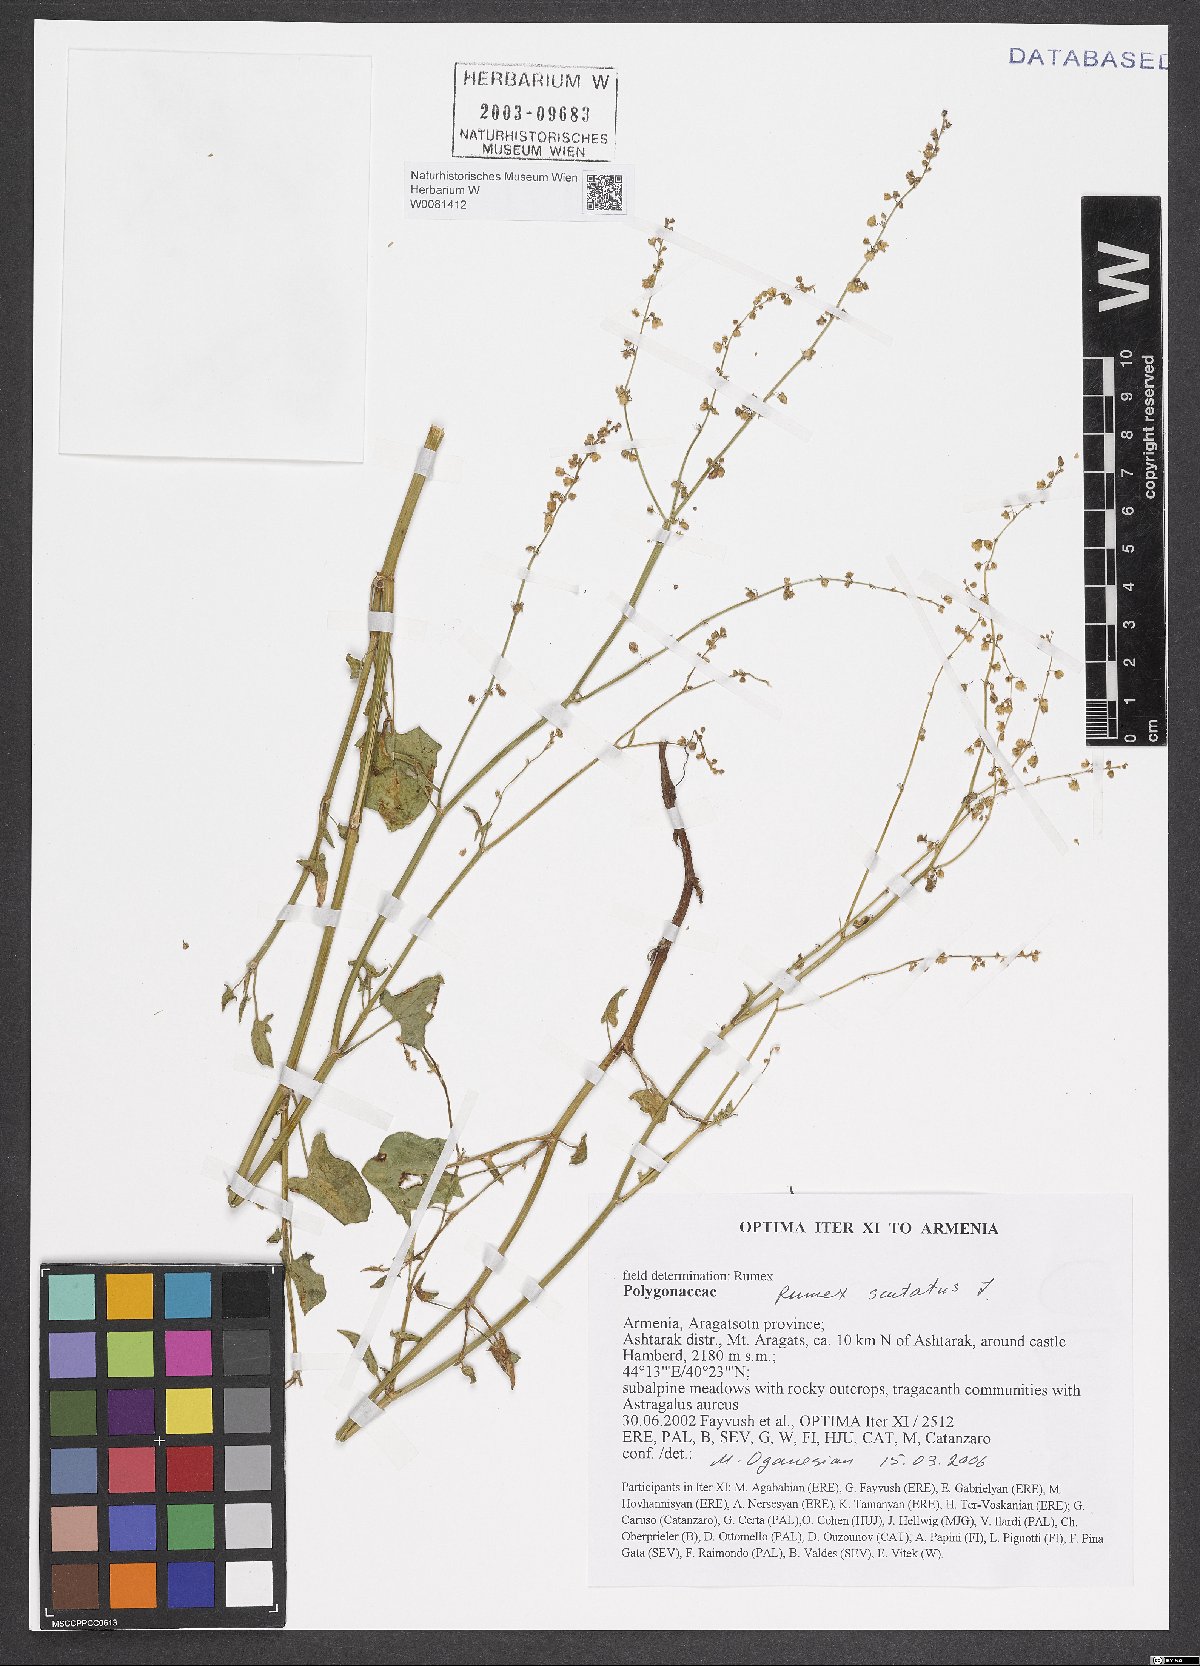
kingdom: Plantae
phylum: Tracheophyta
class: Magnoliopsida
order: Caryophyllales
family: Polygonaceae
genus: Rumex
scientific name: Rumex scutatus
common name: French sorrel
